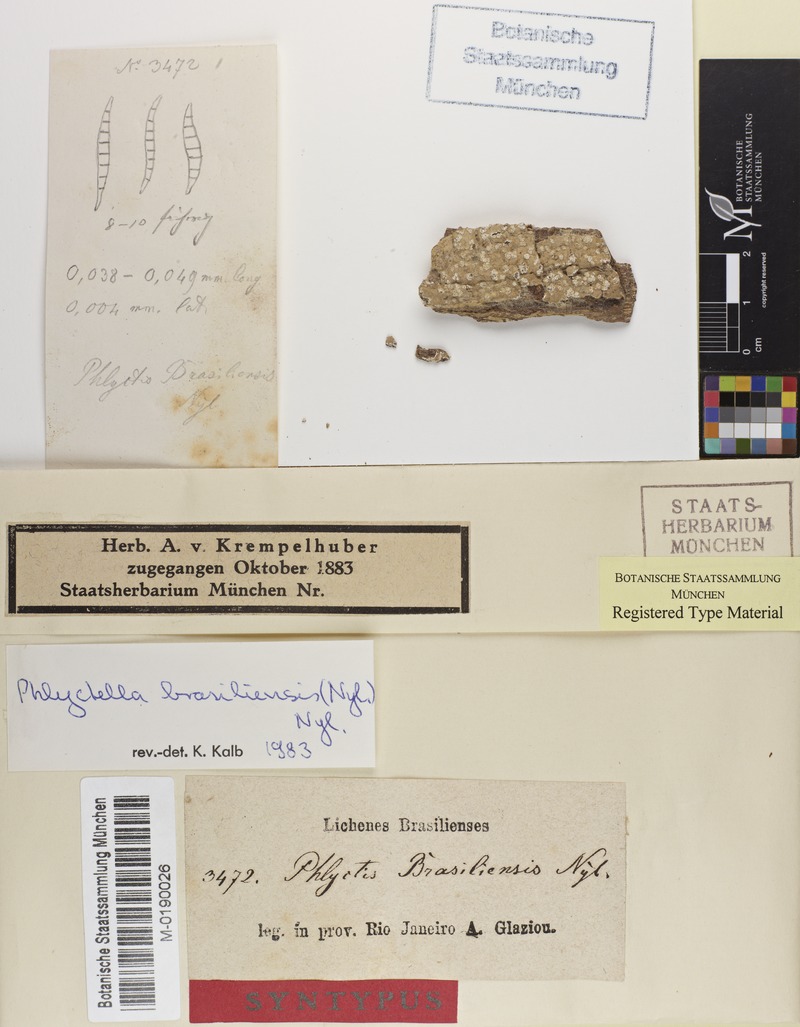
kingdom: Fungi
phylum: Ascomycota
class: Lecanoromycetes
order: Ostropales
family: Phlyctidaceae
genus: Phlyctella
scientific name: Phlyctella brasiliensis
